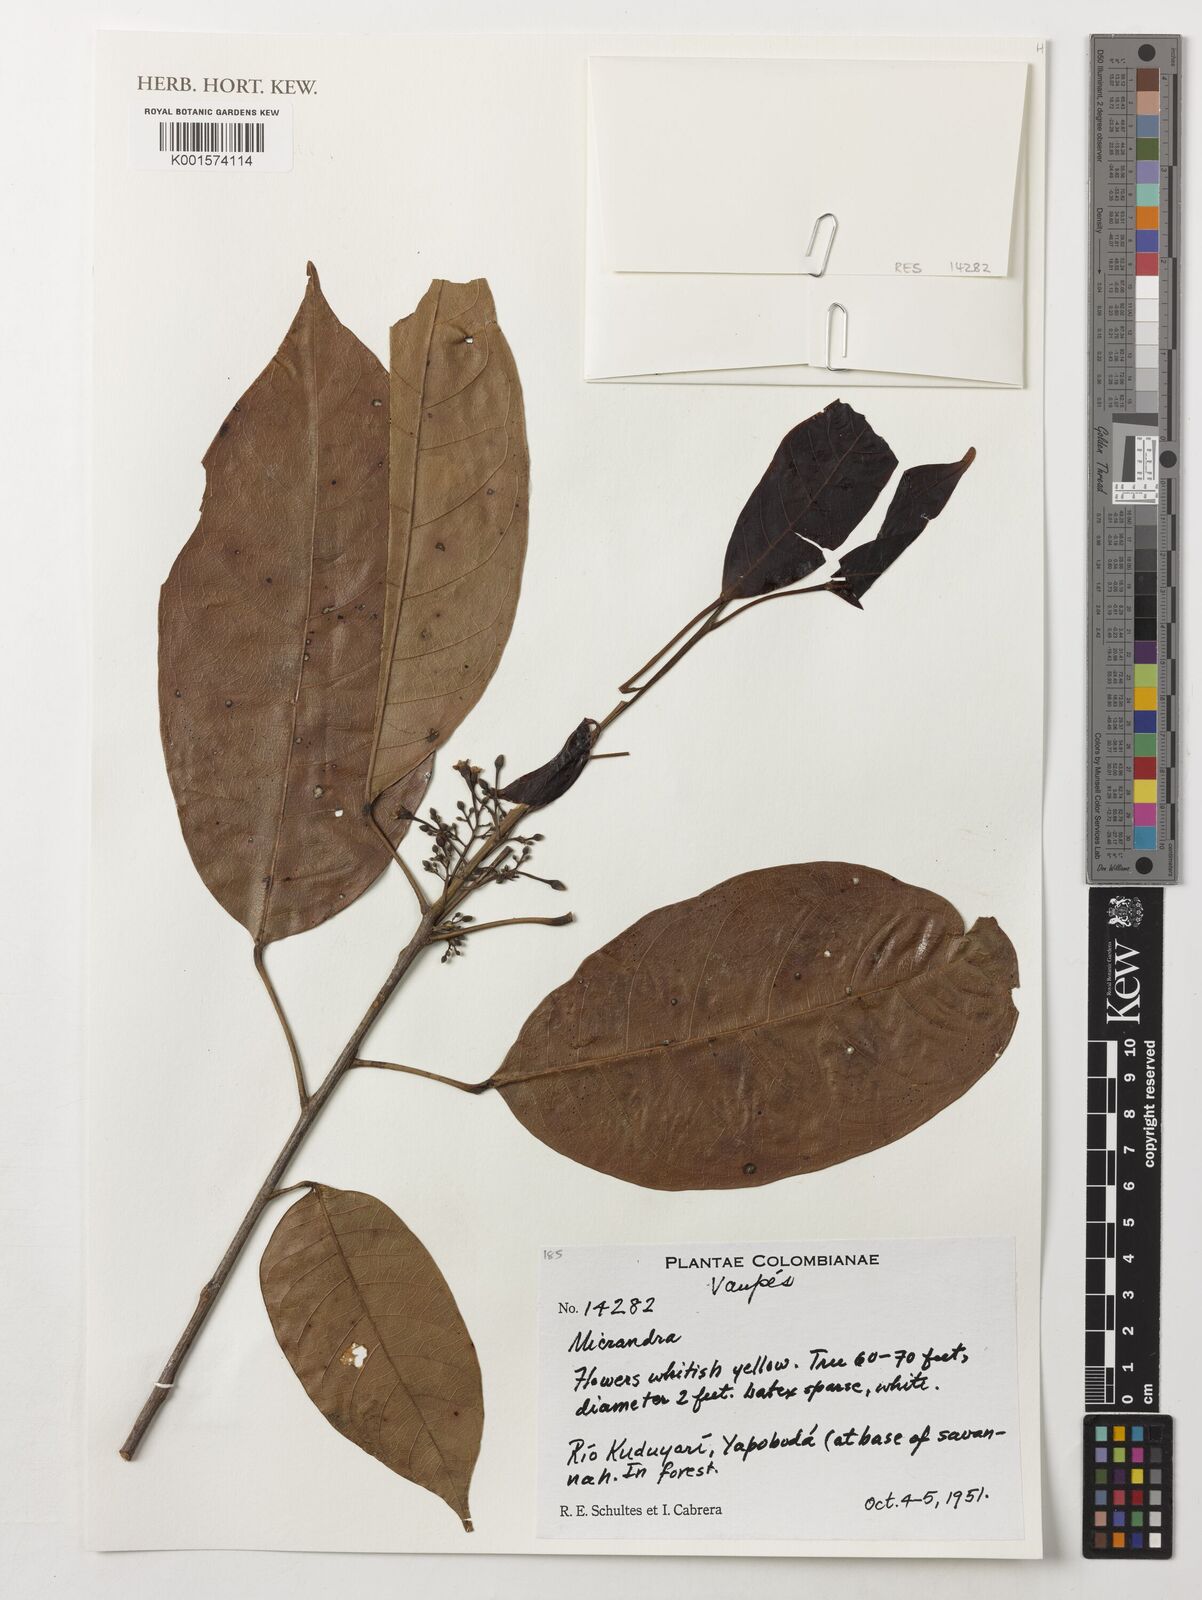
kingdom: Plantae
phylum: Tracheophyta
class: Magnoliopsida
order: Malpighiales
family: Euphorbiaceae
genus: Micrandra
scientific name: Micrandra
